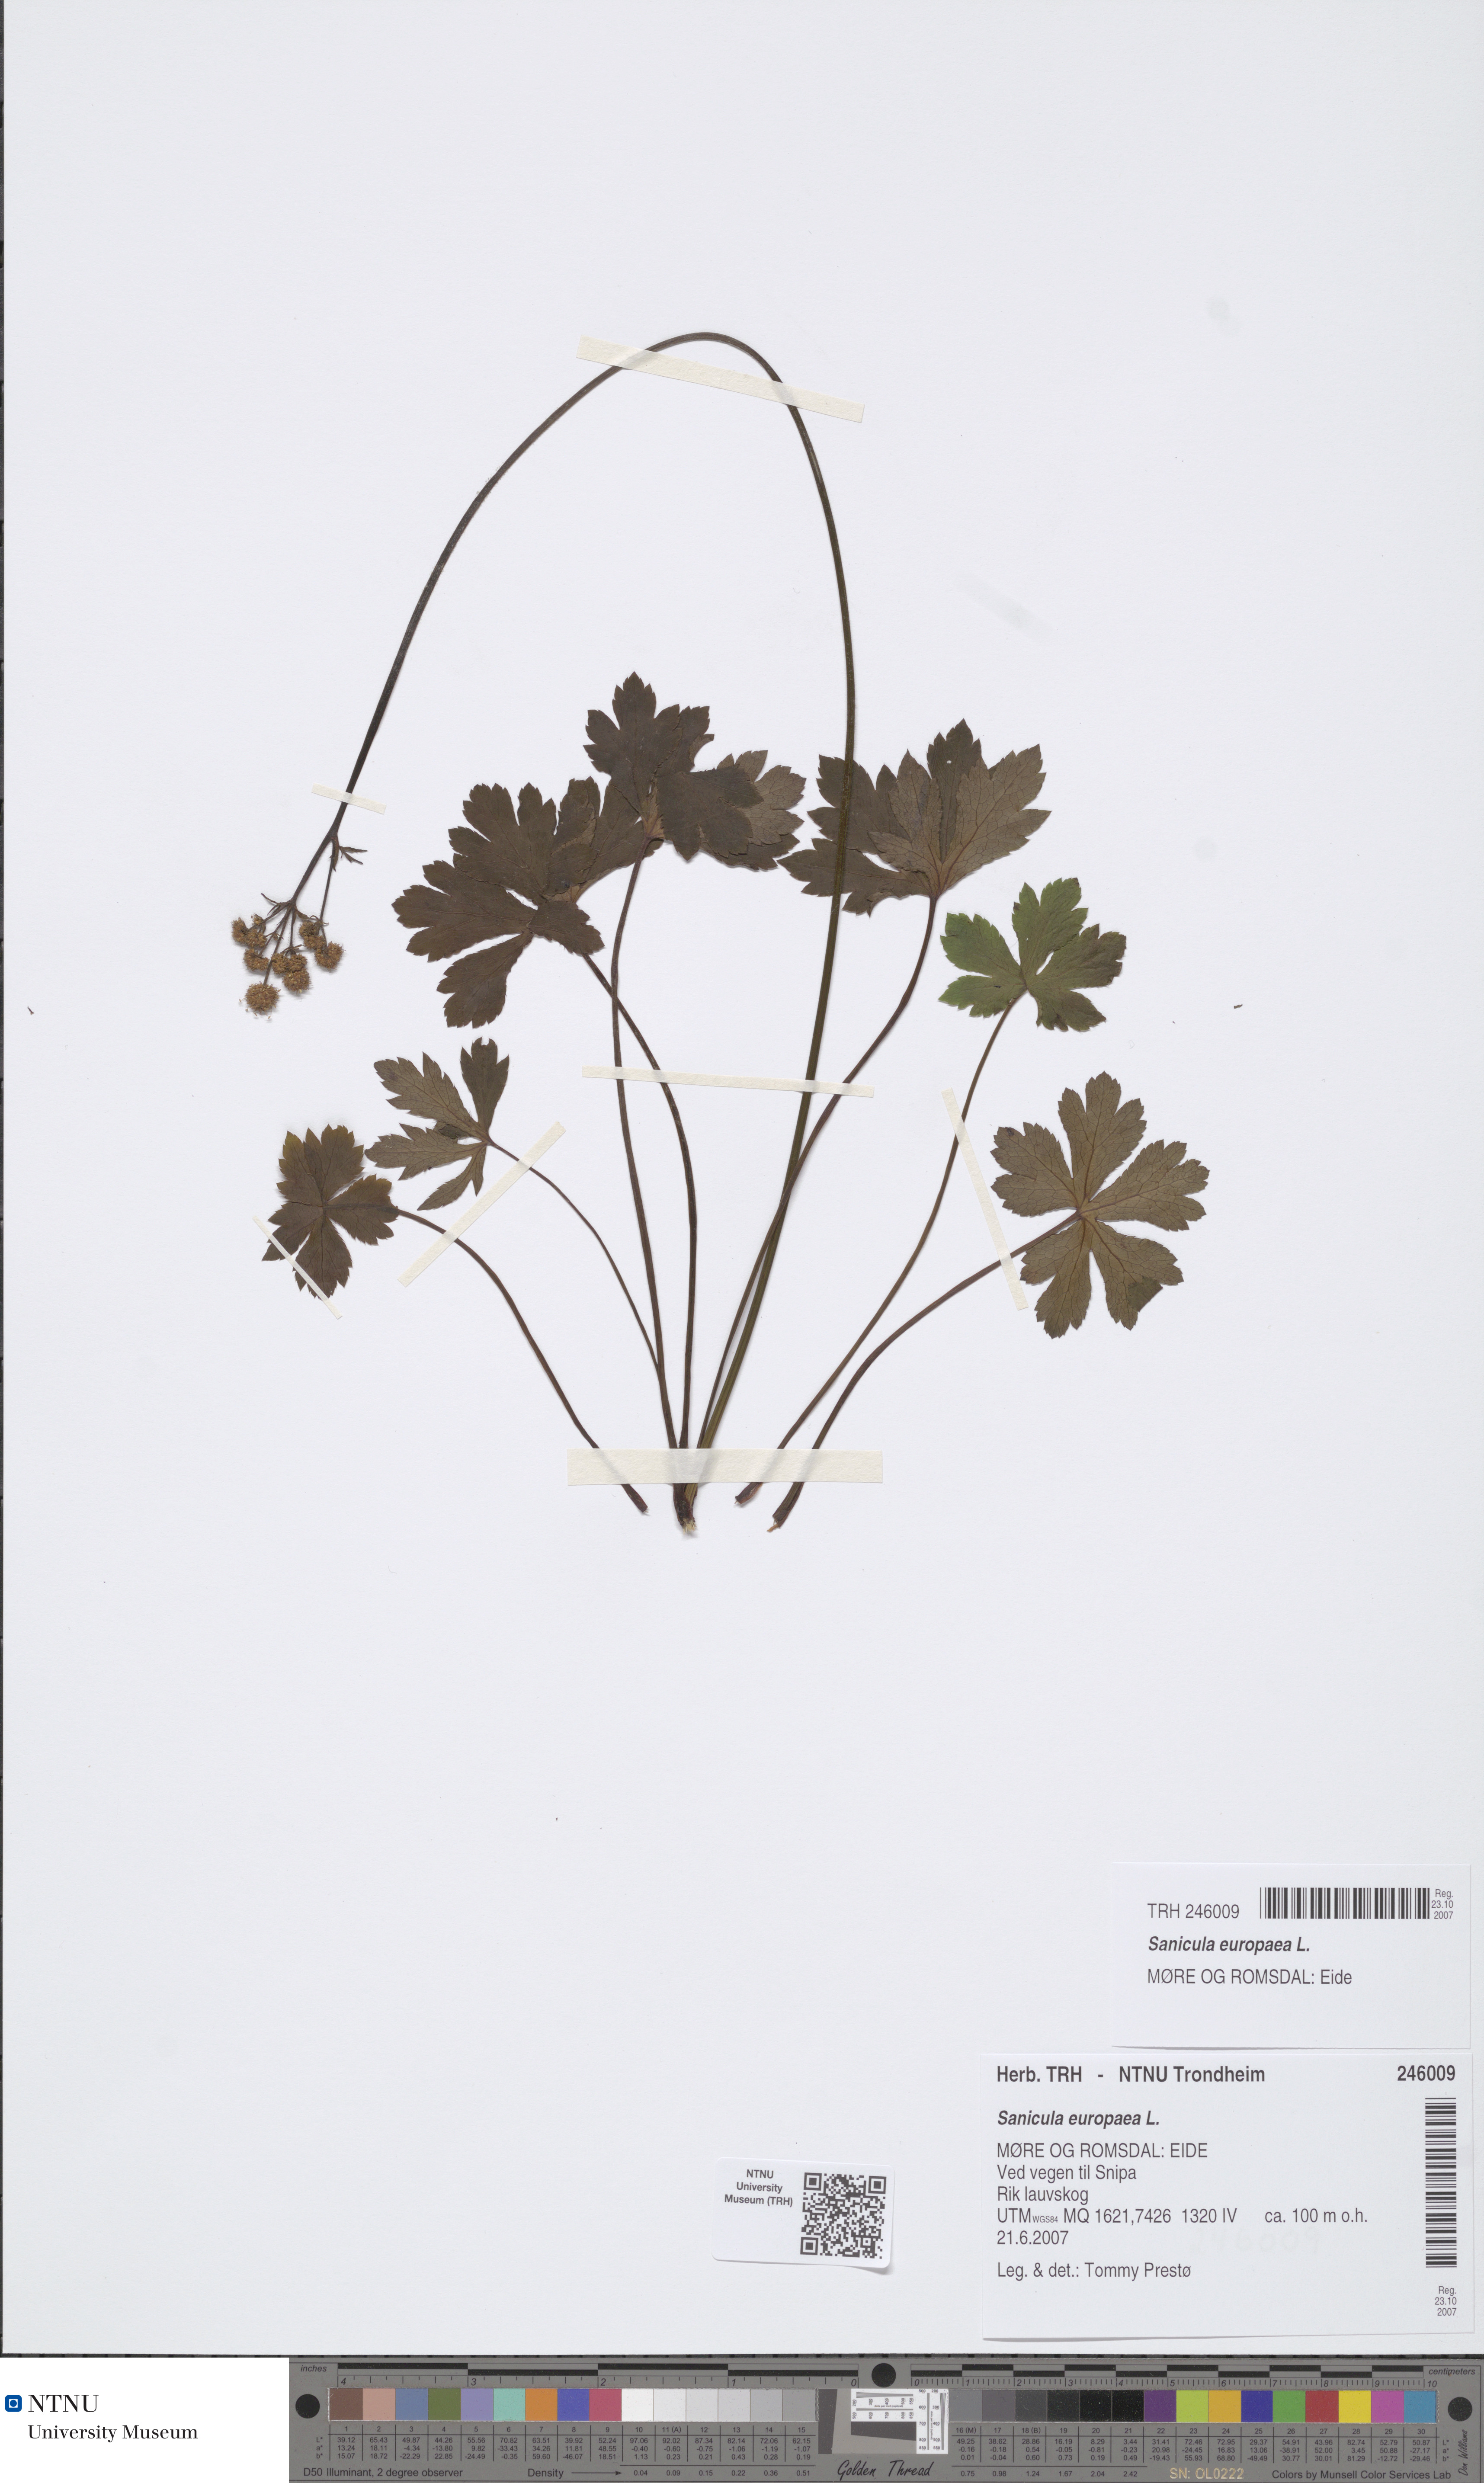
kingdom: Plantae
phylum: Tracheophyta
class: Magnoliopsida
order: Apiales
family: Apiaceae
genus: Sanicula
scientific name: Sanicula europaea
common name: Sanicle
